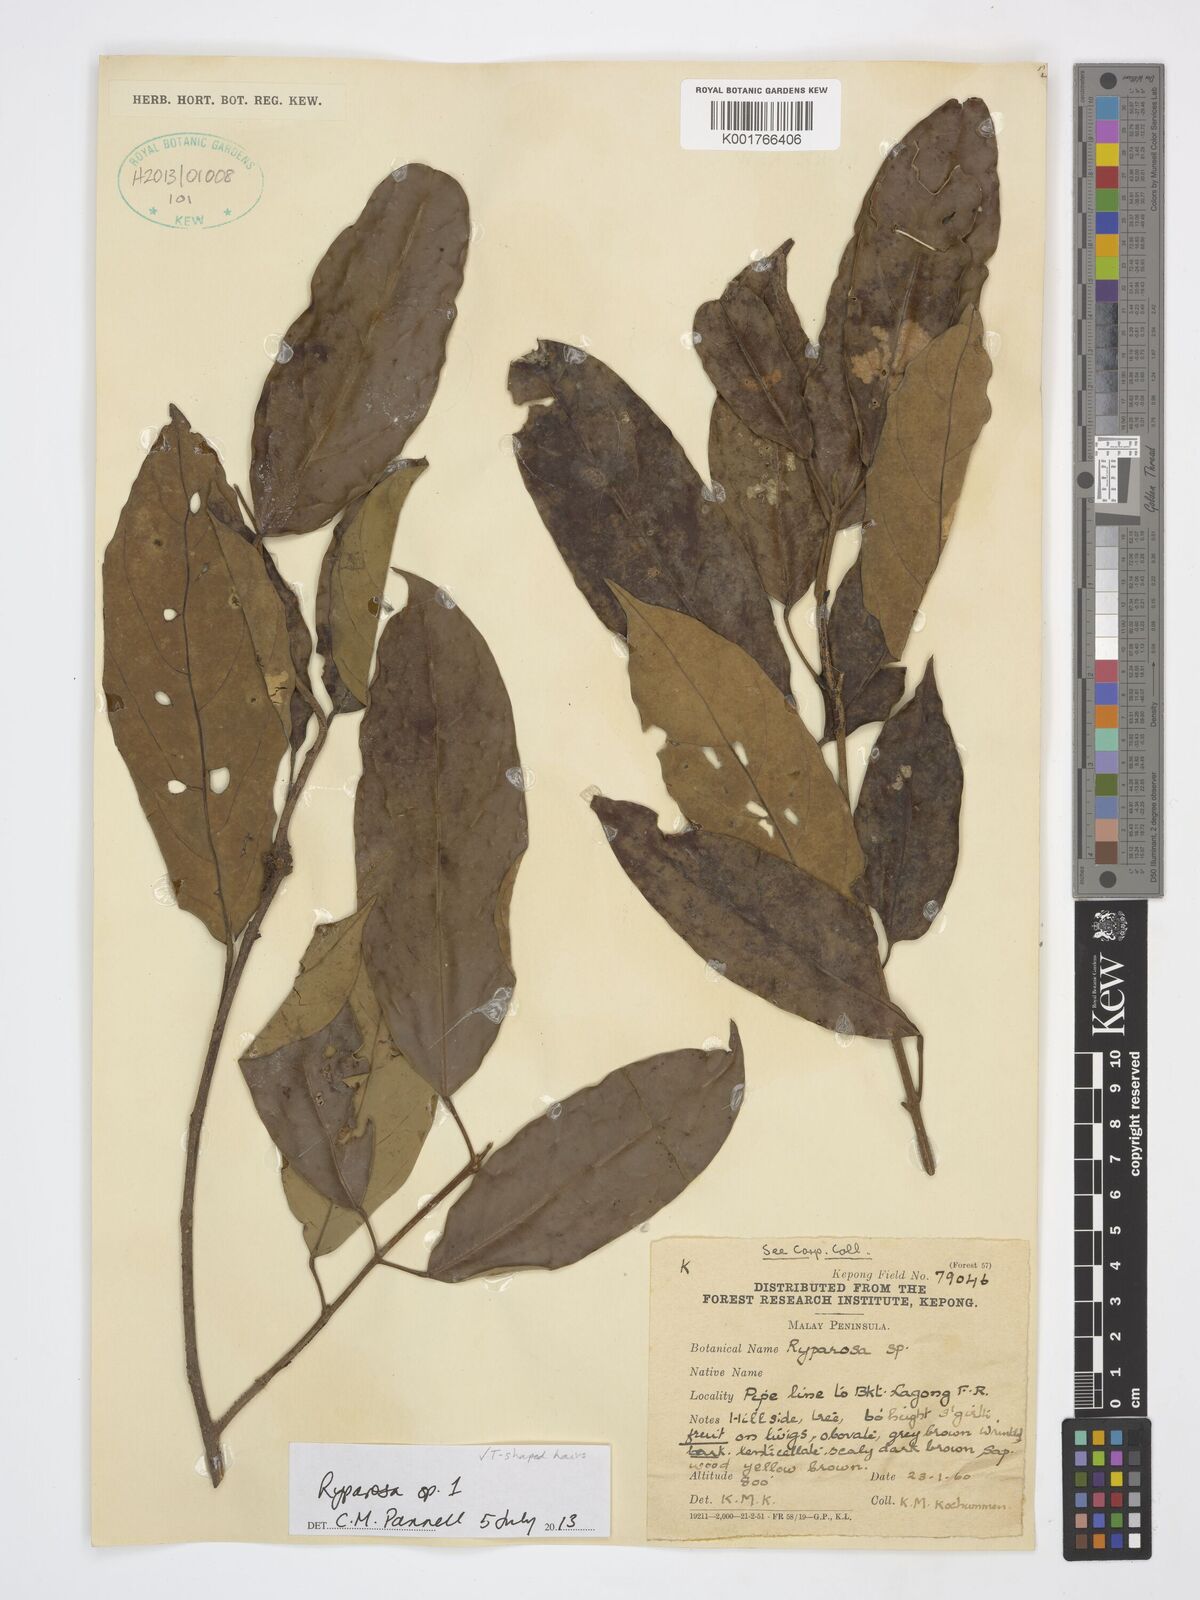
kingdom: Plantae
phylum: Tracheophyta
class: Magnoliopsida
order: Malpighiales
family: Achariaceae
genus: Ryparosa
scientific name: Ryparosa
